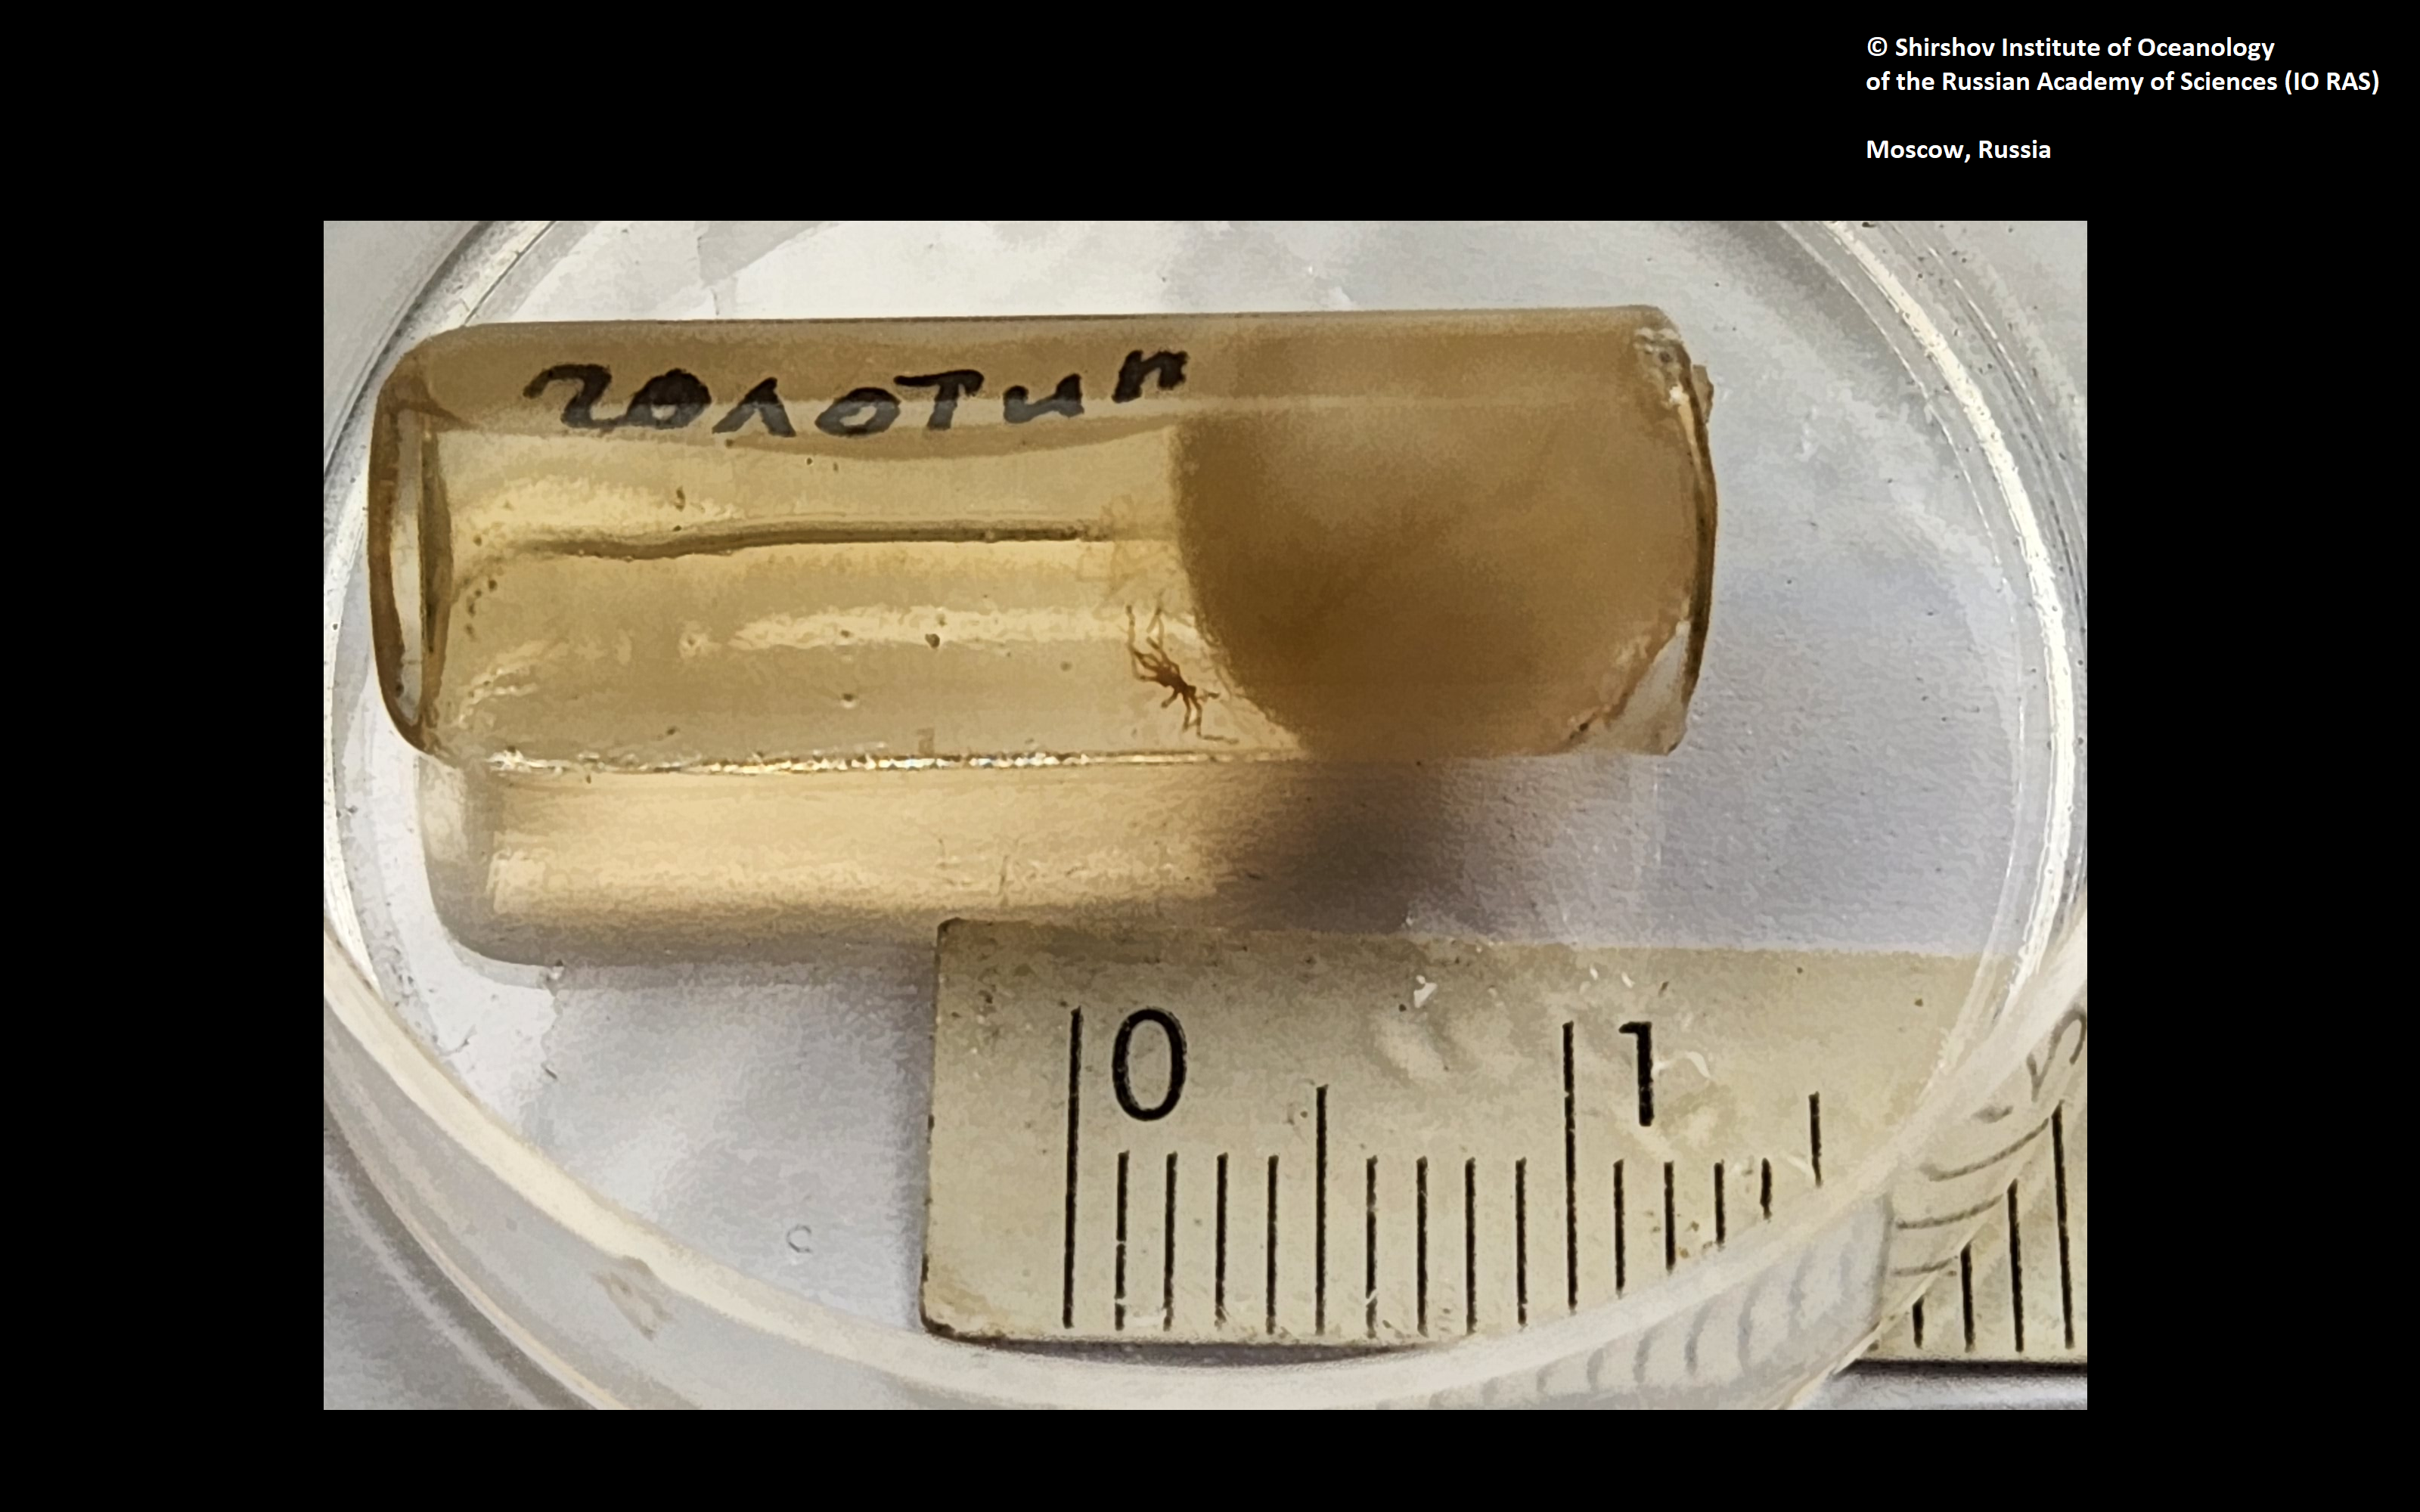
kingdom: Animalia
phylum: Arthropoda
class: Pycnogonida
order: Pantopoda
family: Austrodecidae
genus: Austrodecus
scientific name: Austrodecus valdiviens
